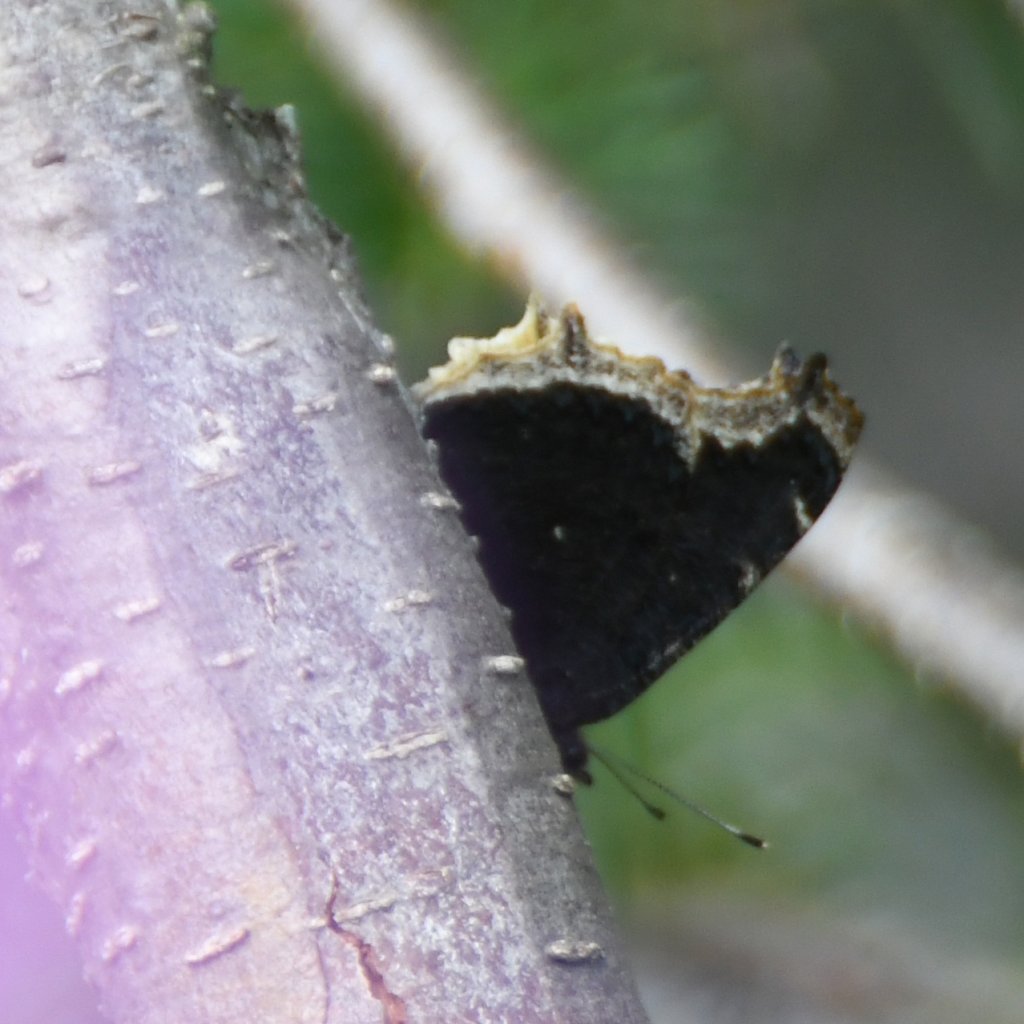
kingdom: Animalia
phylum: Arthropoda
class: Insecta
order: Lepidoptera
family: Nymphalidae
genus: Nymphalis
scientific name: Nymphalis antiopa
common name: Mourning Cloak
